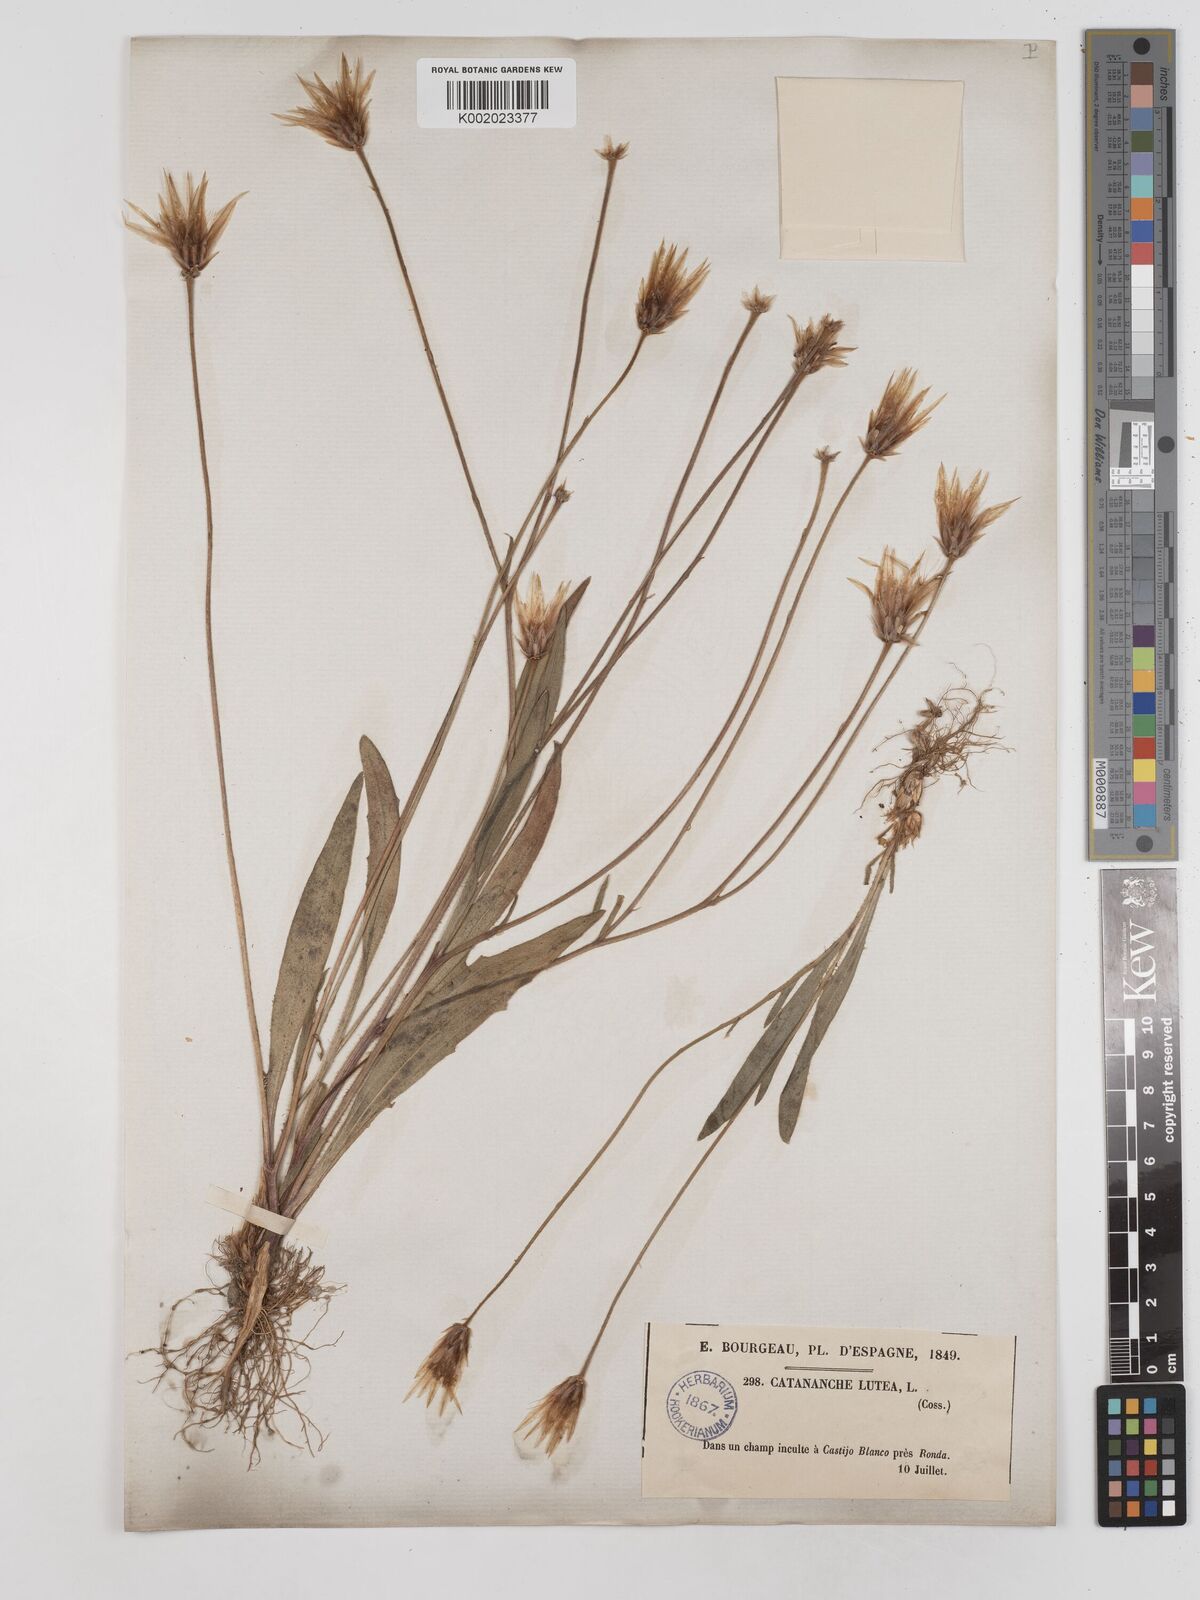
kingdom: Plantae
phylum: Tracheophyta
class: Magnoliopsida
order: Asterales
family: Asteraceae
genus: Catananche
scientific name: Catananche lutea
